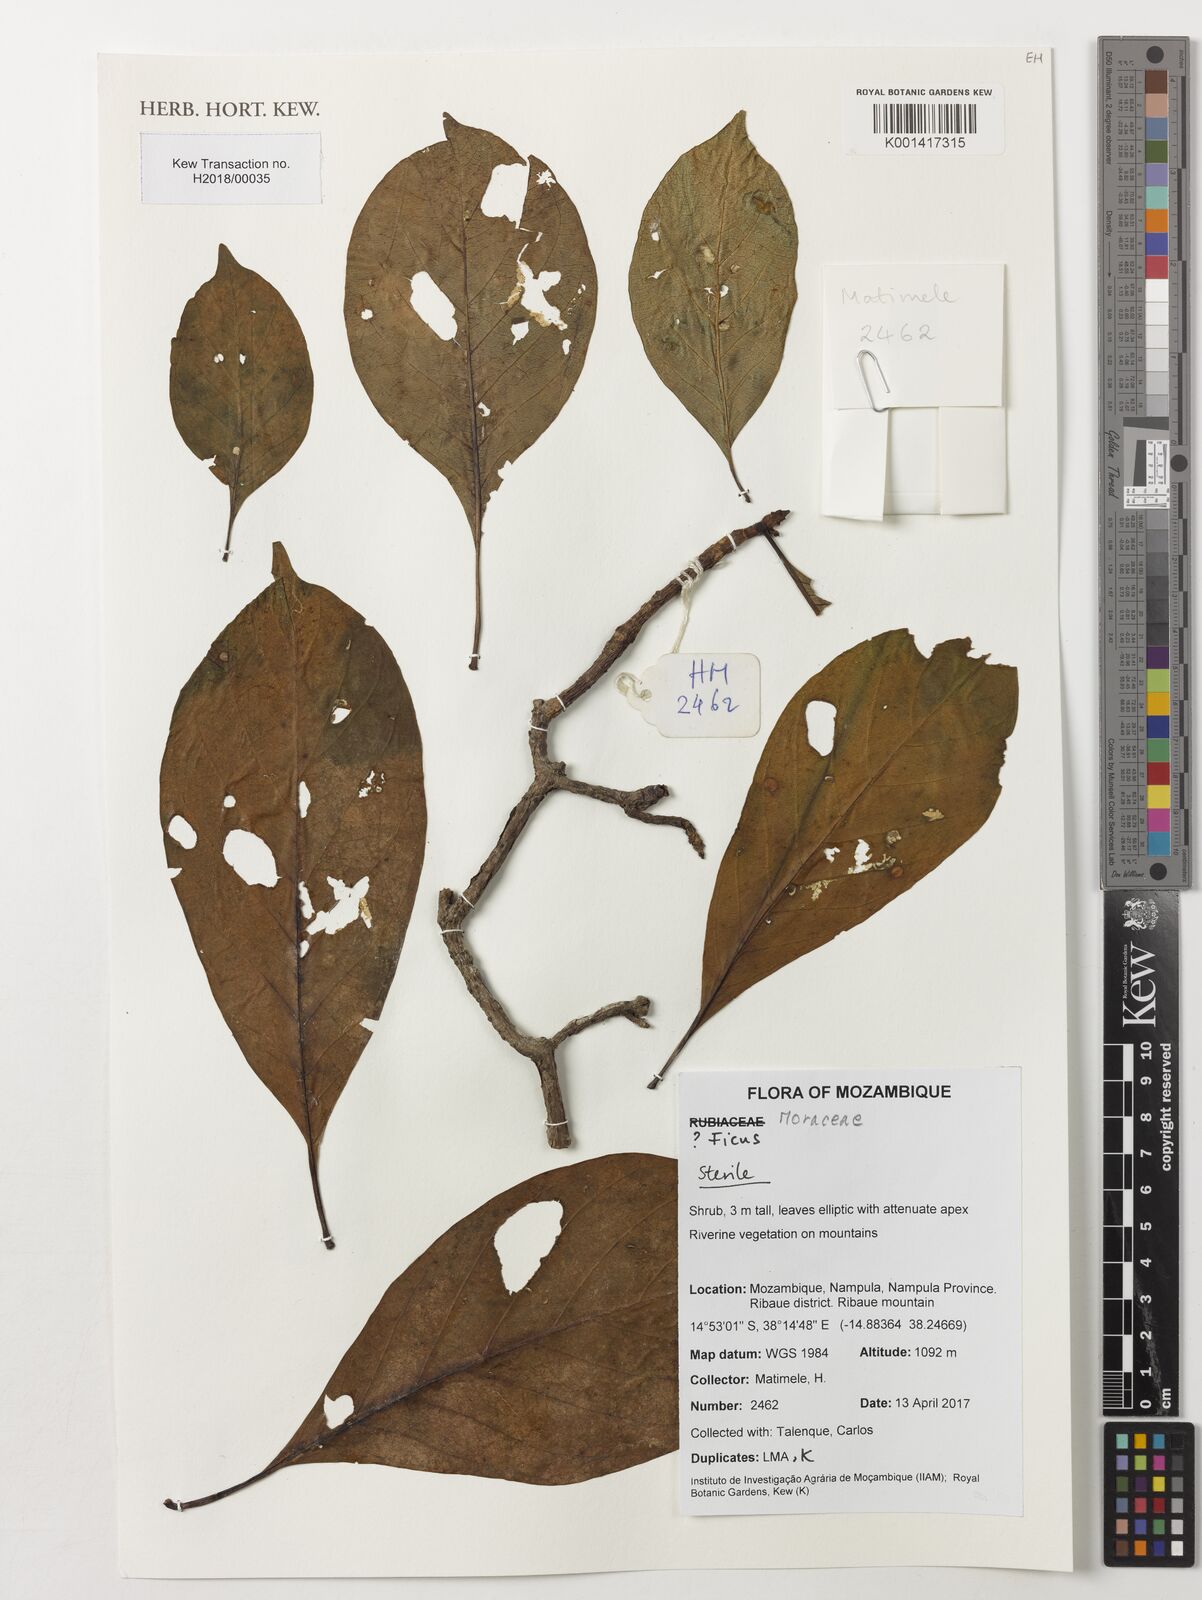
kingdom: Plantae
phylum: Tracheophyta
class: Magnoliopsida
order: Rosales
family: Moraceae
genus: Ficus
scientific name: Ficus
